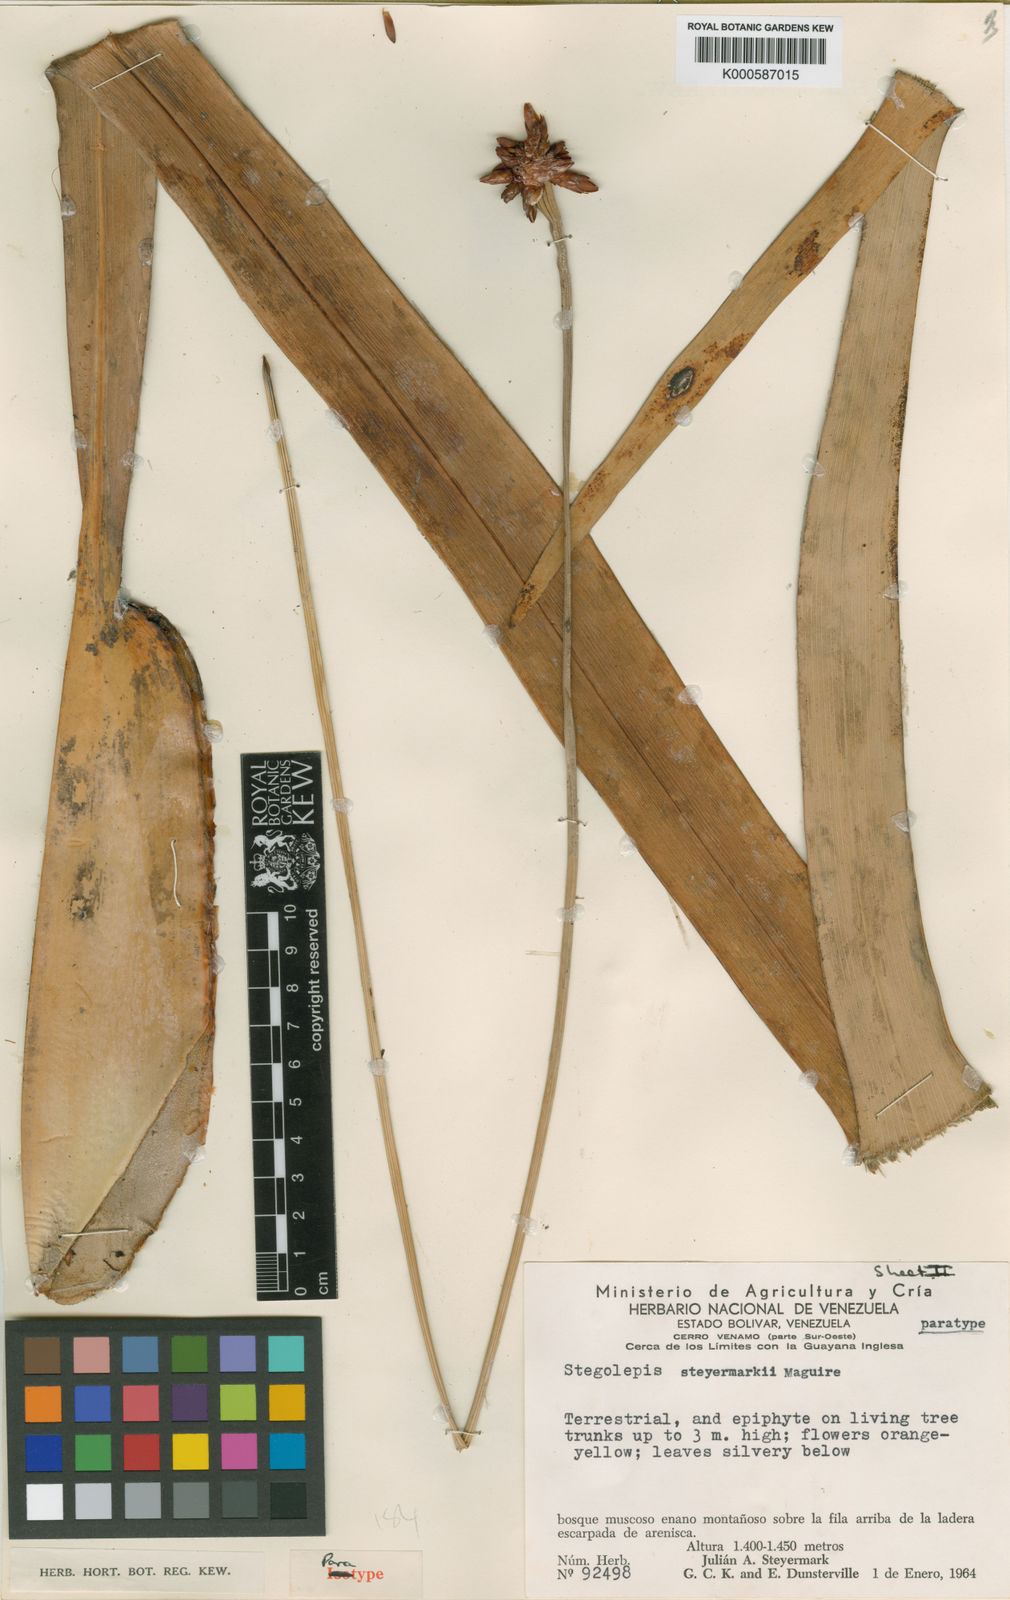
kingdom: Plantae
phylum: Tracheophyta
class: Liliopsida
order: Poales
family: Rapateaceae
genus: Stegolepis
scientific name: Stegolepis steyermarkii
